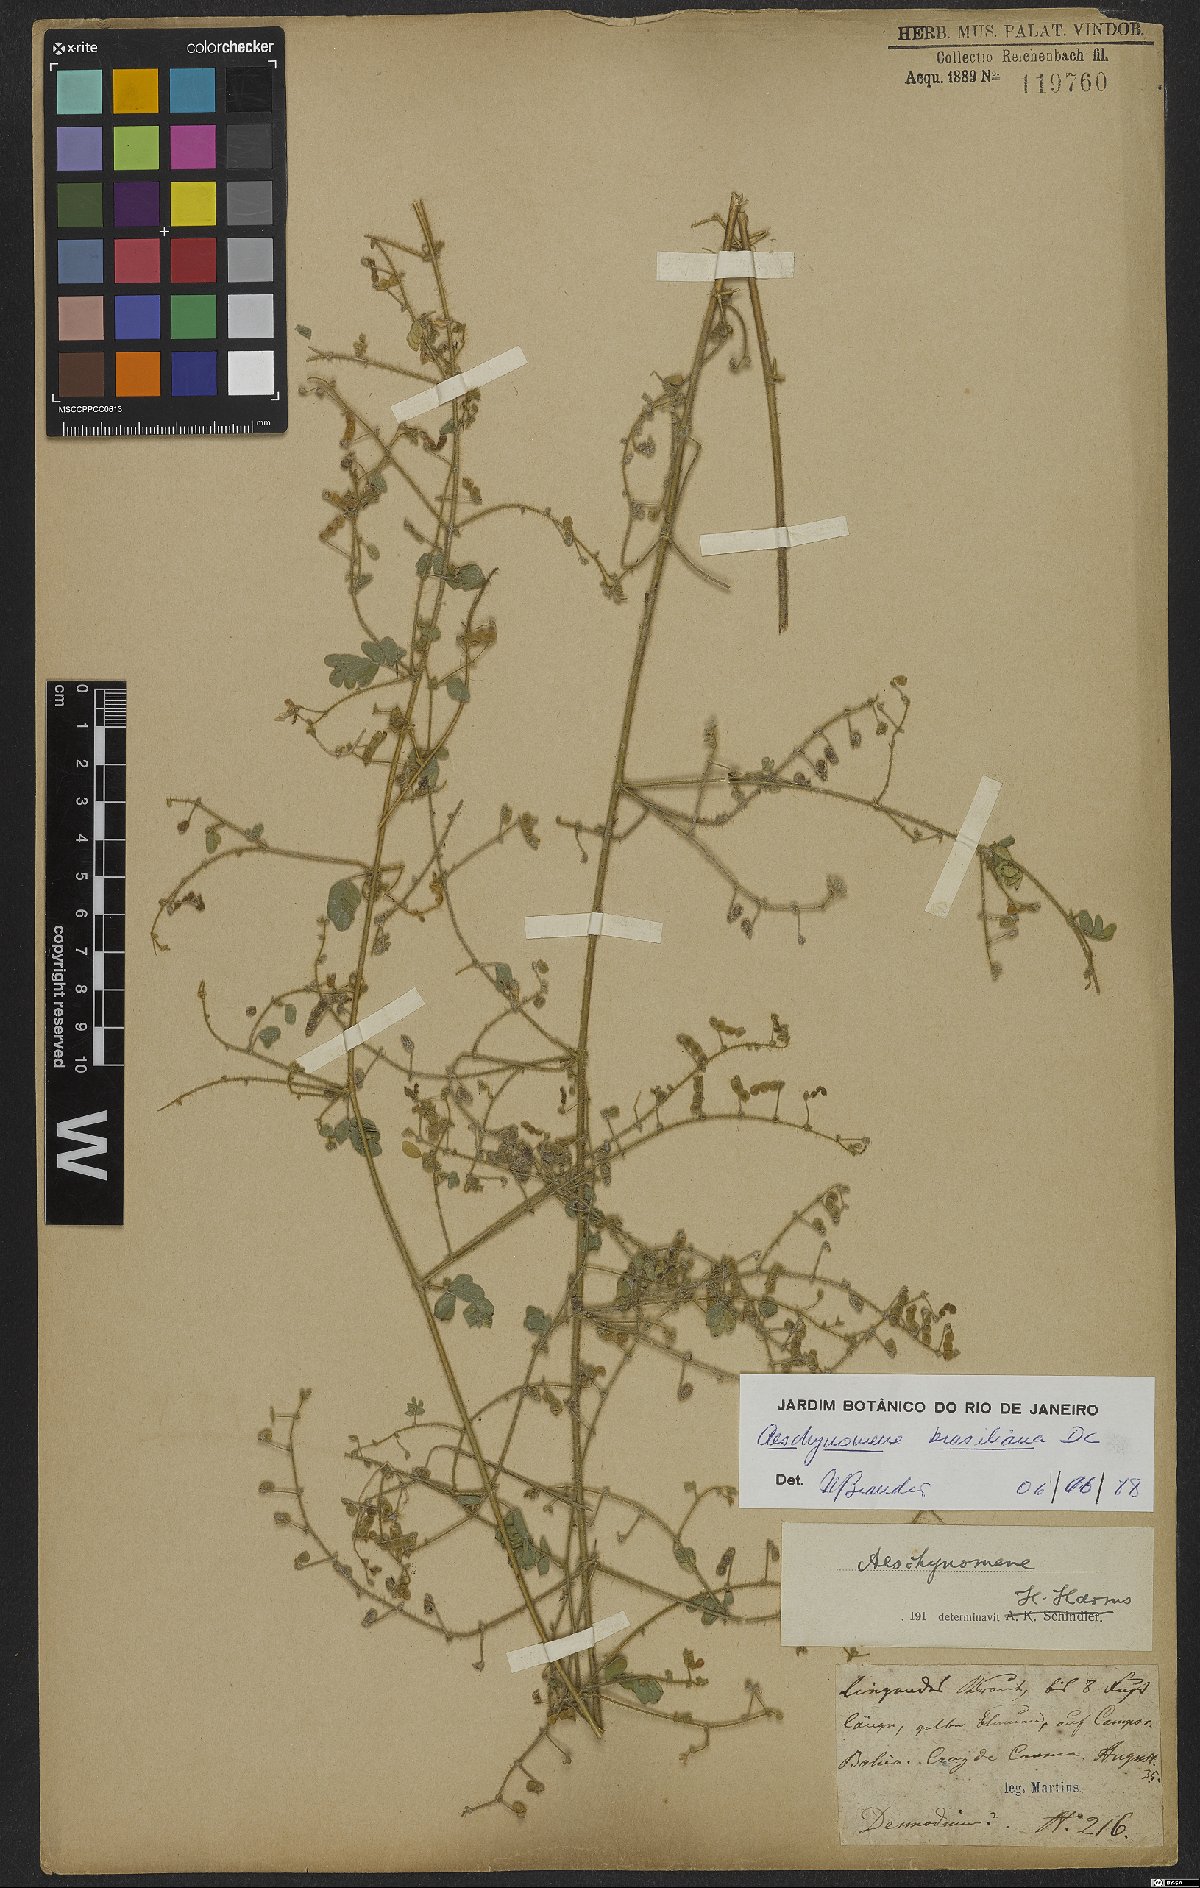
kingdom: Plantae
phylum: Tracheophyta
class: Magnoliopsida
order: Fabales
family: Fabaceae
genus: Ctenodon
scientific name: Ctenodon brasilianus
